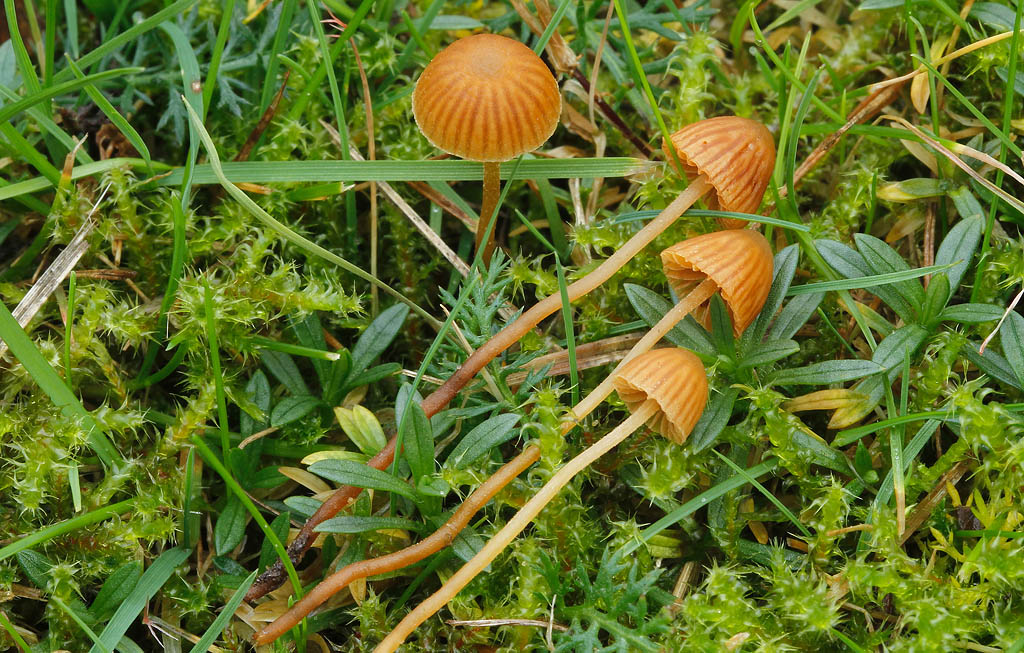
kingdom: Fungi
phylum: Basidiomycota
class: Agaricomycetes
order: Agaricales
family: Hymenogastraceae
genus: Galerina
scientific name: Galerina vittiformis
